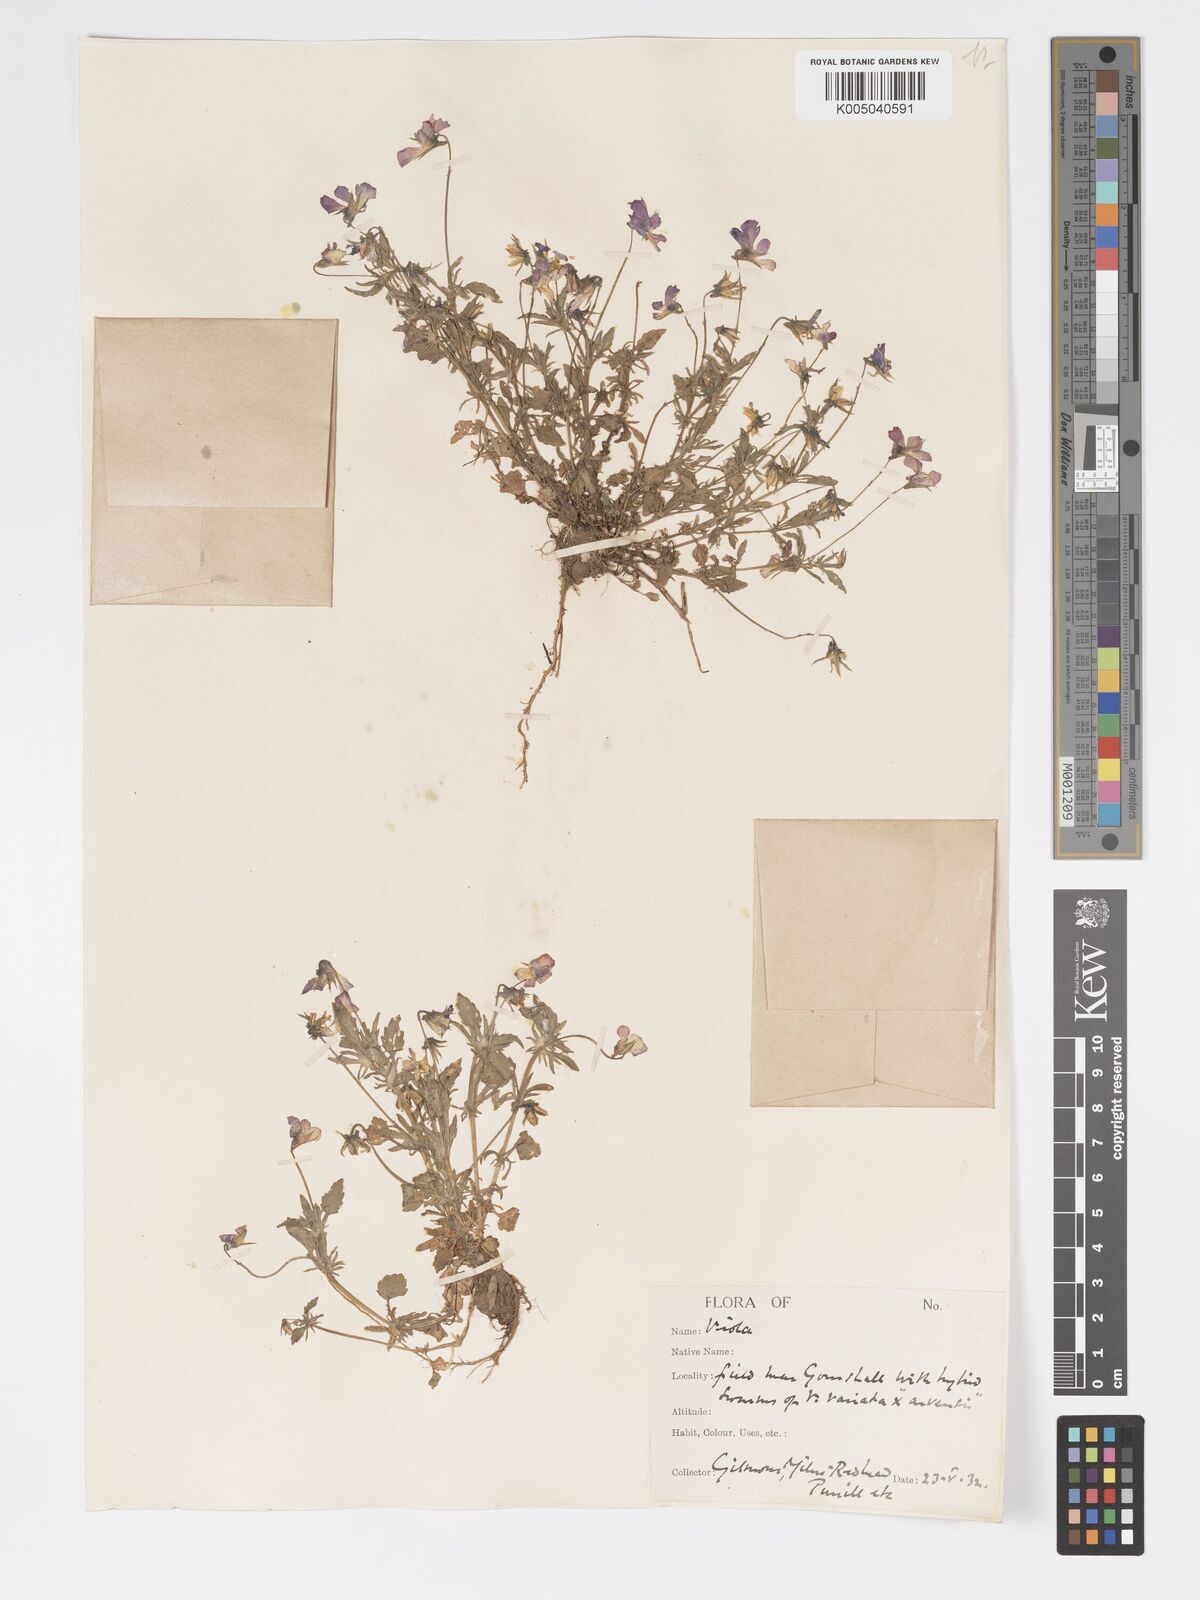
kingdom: Plantae
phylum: Tracheophyta
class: Magnoliopsida
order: Malpighiales
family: Violaceae
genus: Viola
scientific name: Viola
